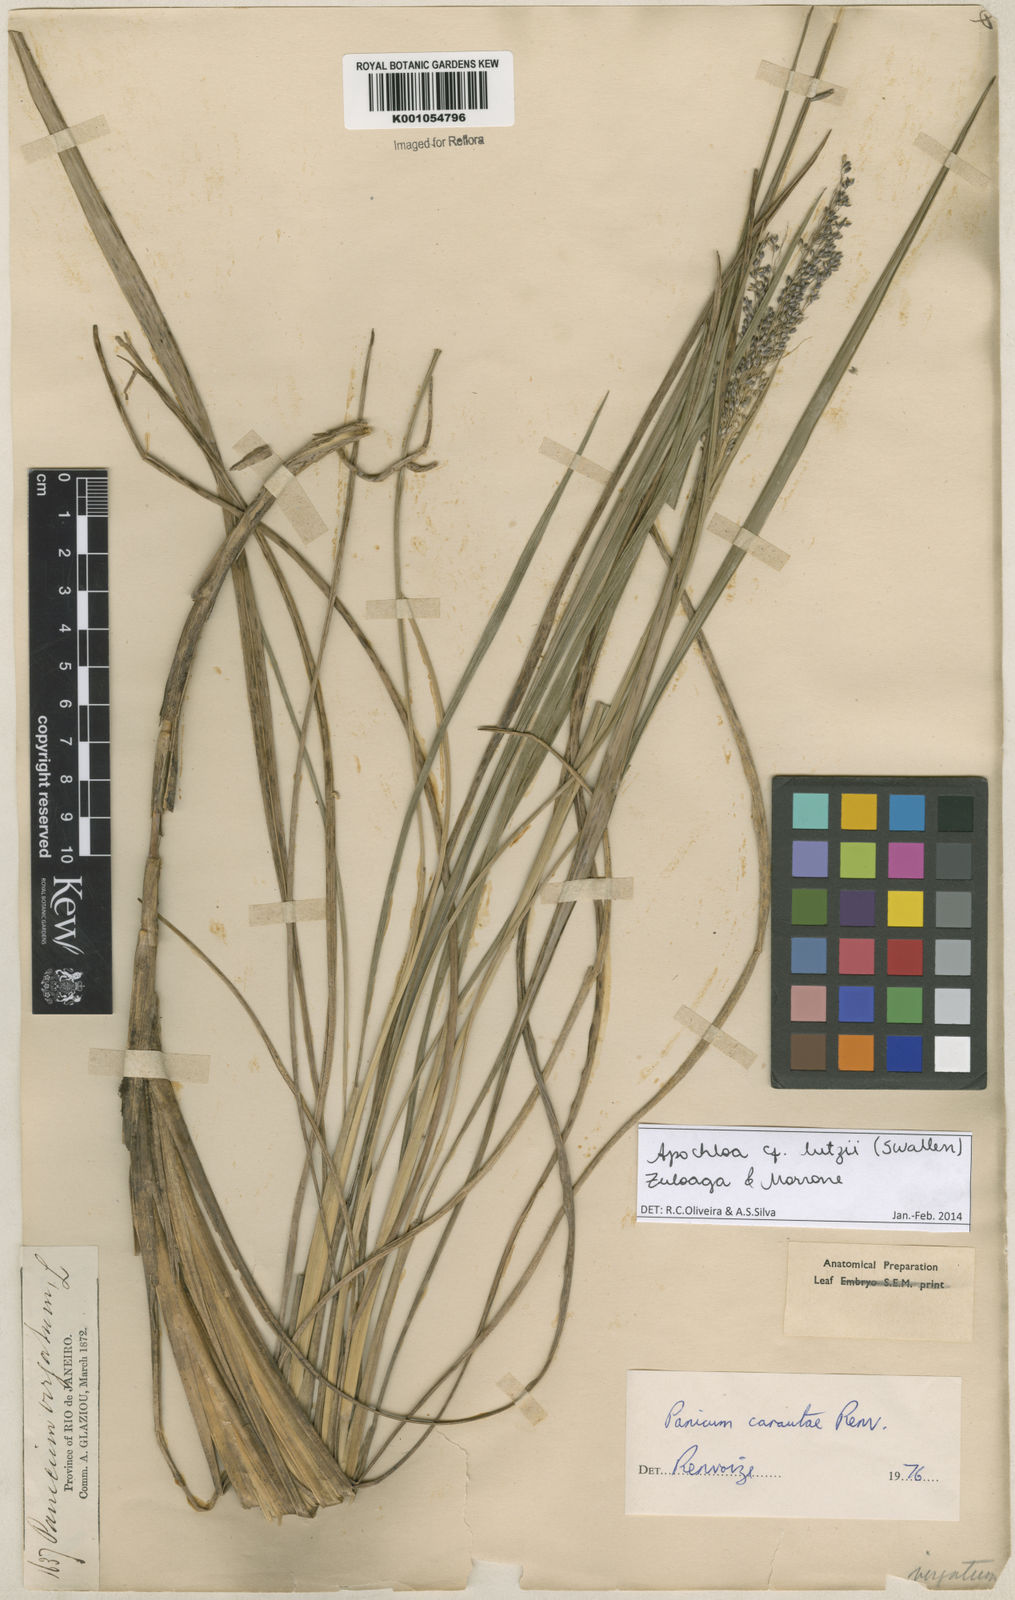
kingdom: Plantae
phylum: Tracheophyta
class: Liliopsida
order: Poales
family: Poaceae
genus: Apochloa
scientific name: Apochloa lutzii
